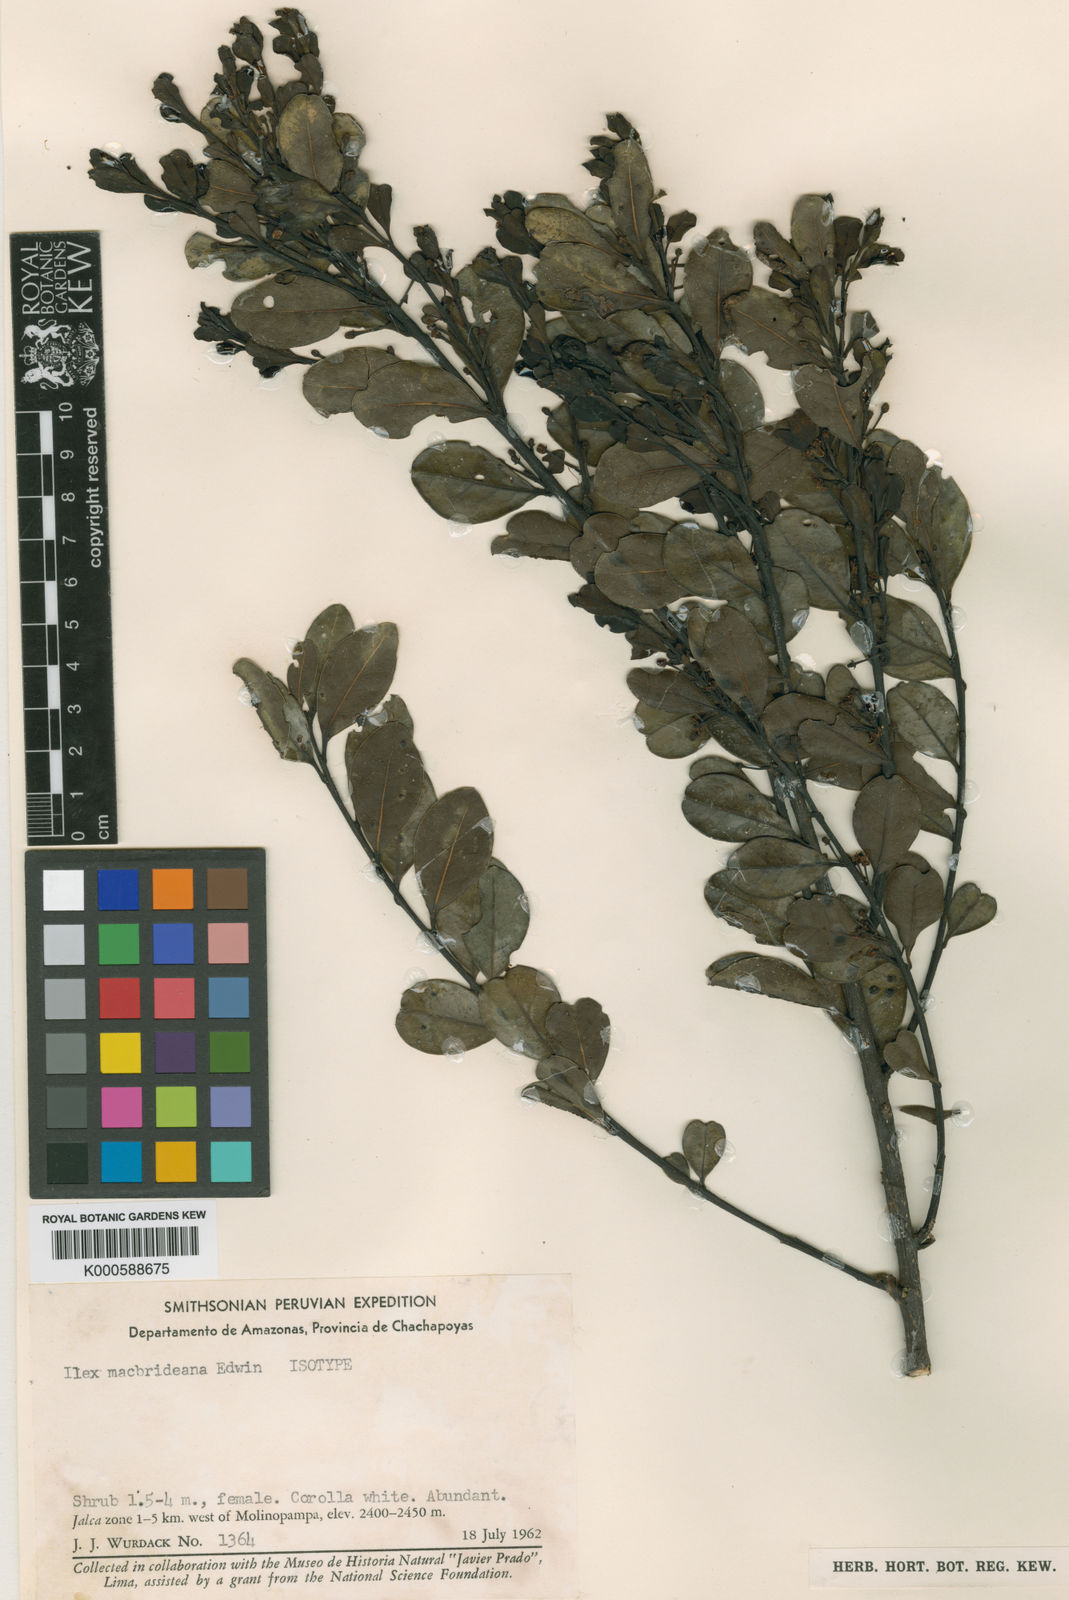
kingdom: Plantae
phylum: Tracheophyta
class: Magnoliopsida
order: Aquifoliales
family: Aquifoliaceae
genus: Ilex
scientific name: Ilex macbridiana
